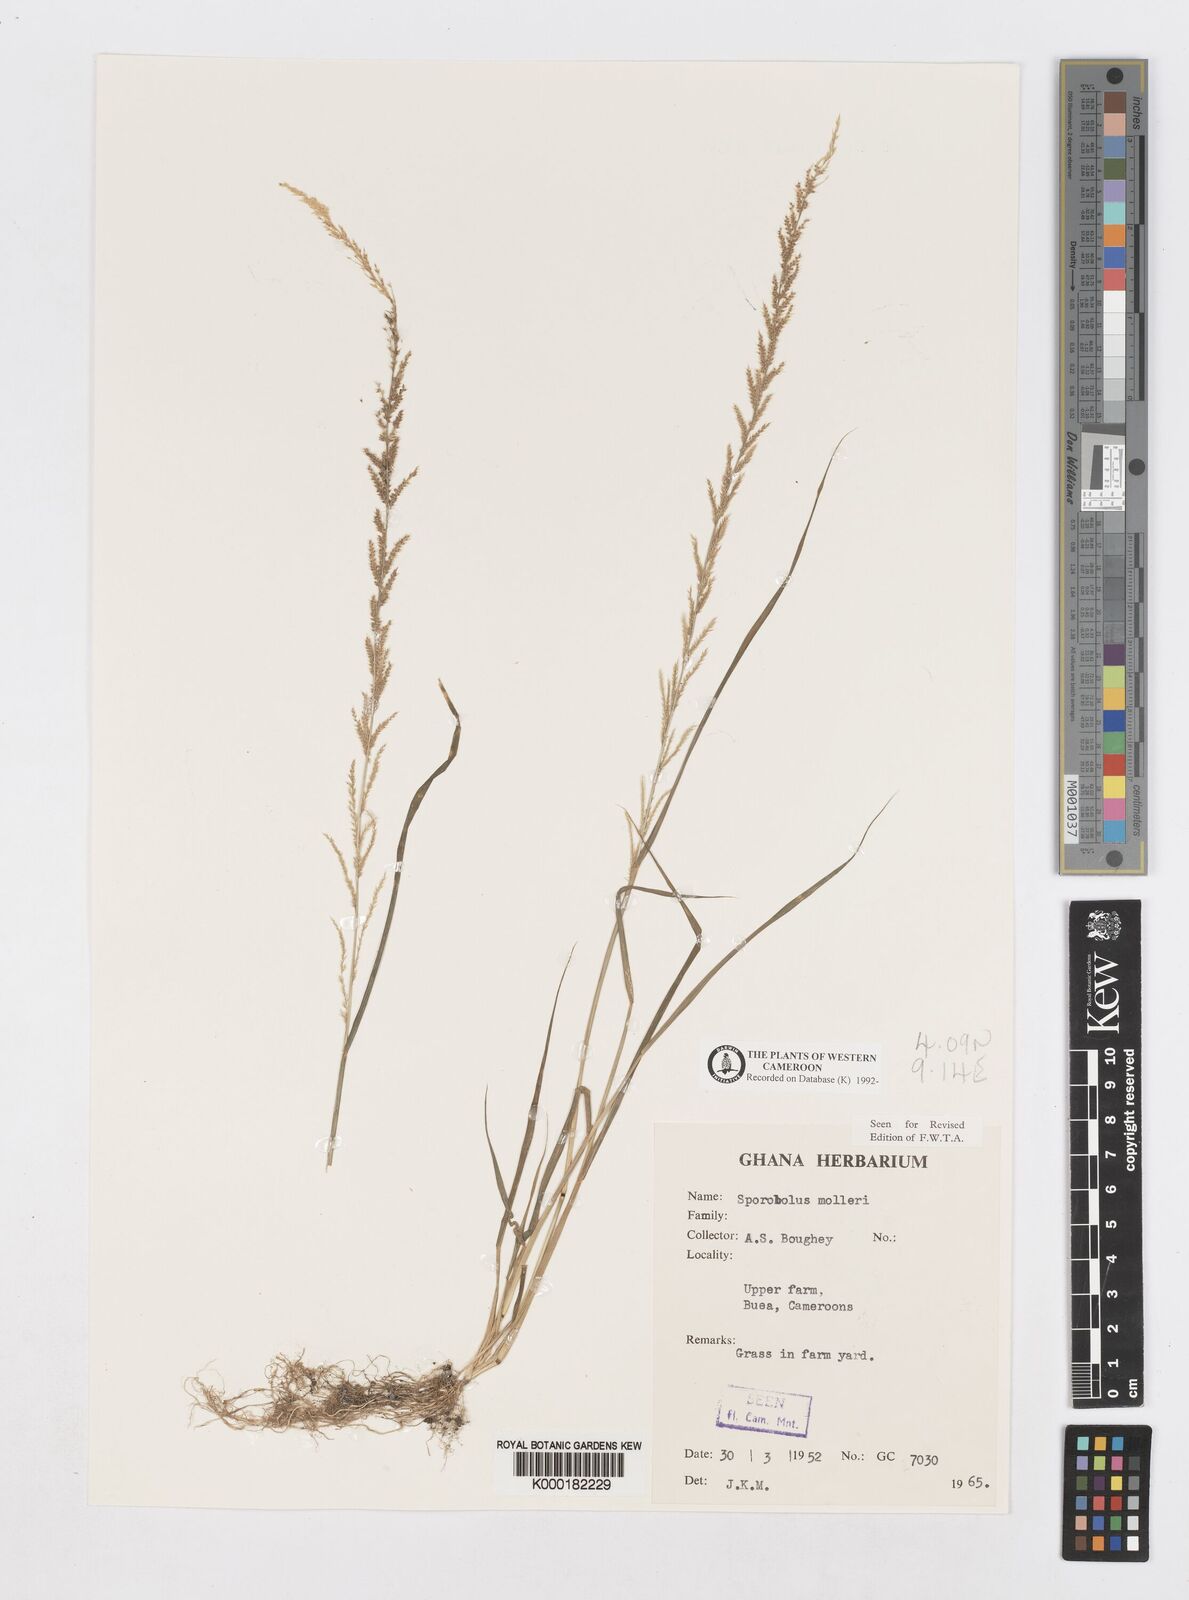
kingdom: Plantae
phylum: Tracheophyta
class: Liliopsida
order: Poales
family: Poaceae
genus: Sporobolus
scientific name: Sporobolus molleri
